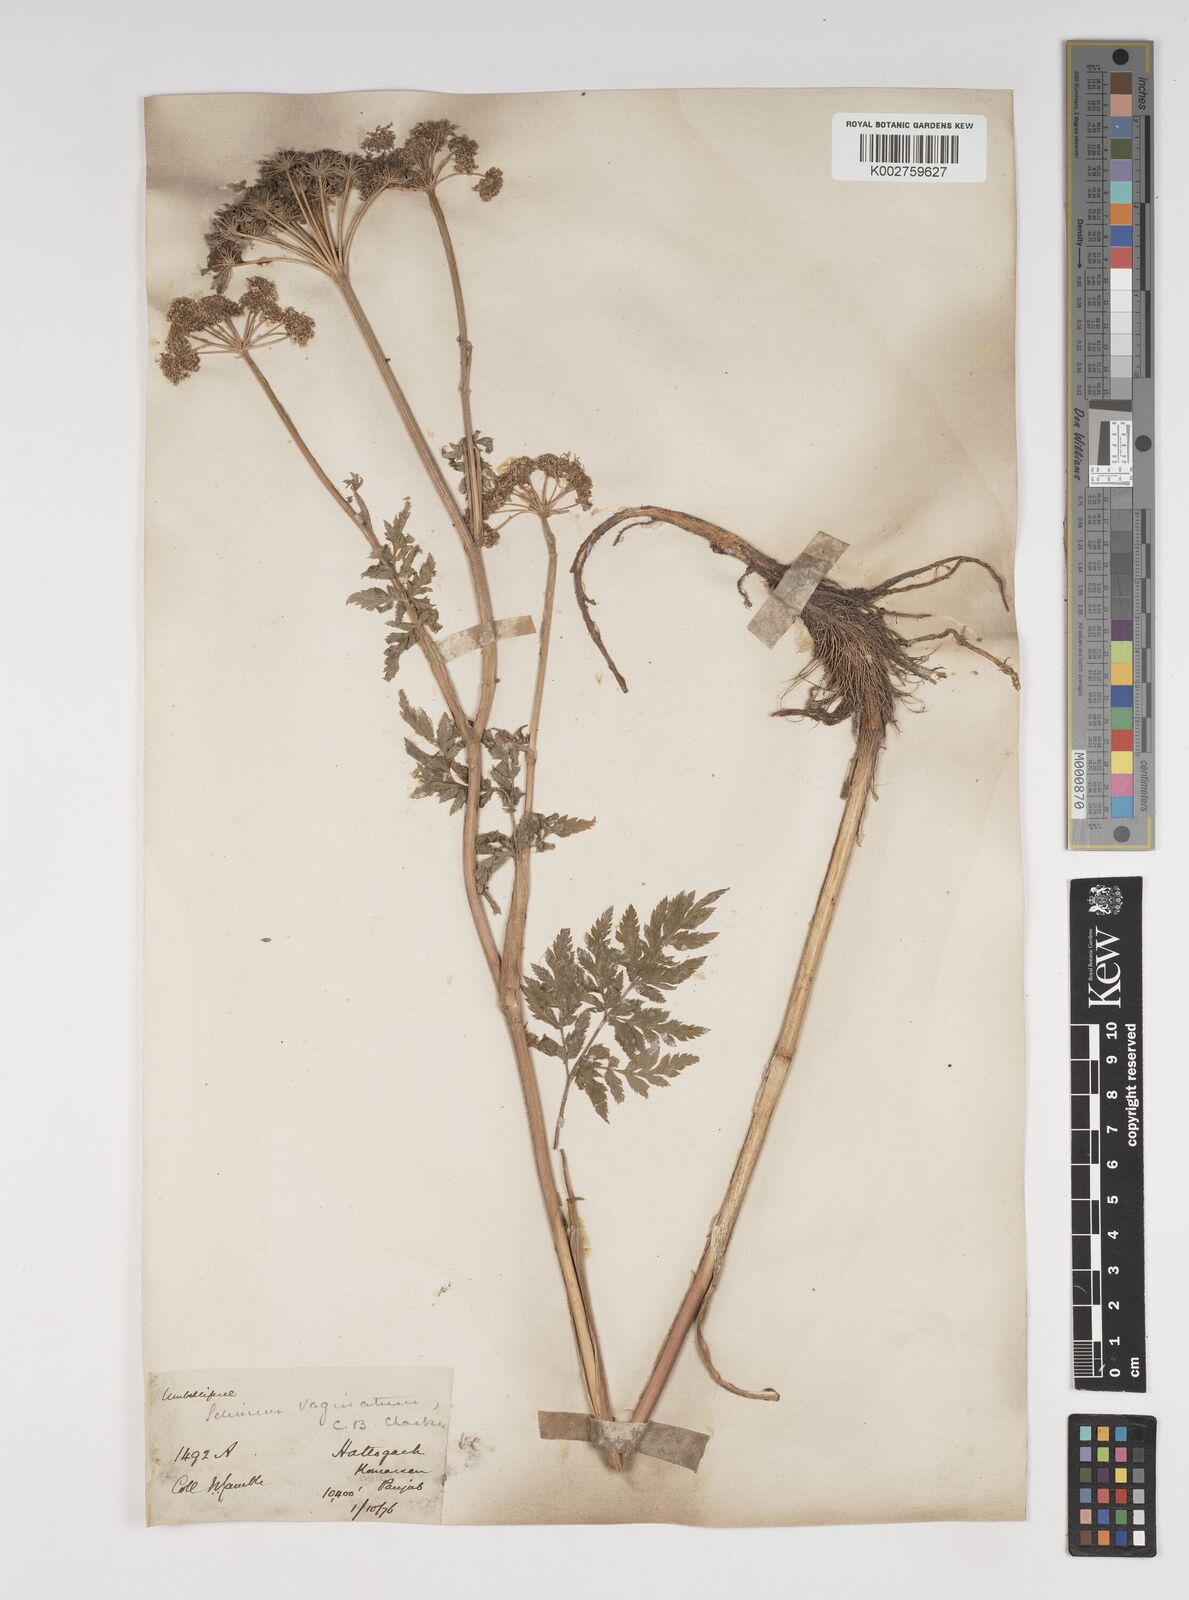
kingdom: Plantae
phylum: Tracheophyta
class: Magnoliopsida
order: Apiales
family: Apiaceae
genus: Selinum
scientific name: Selinum vaginatum
